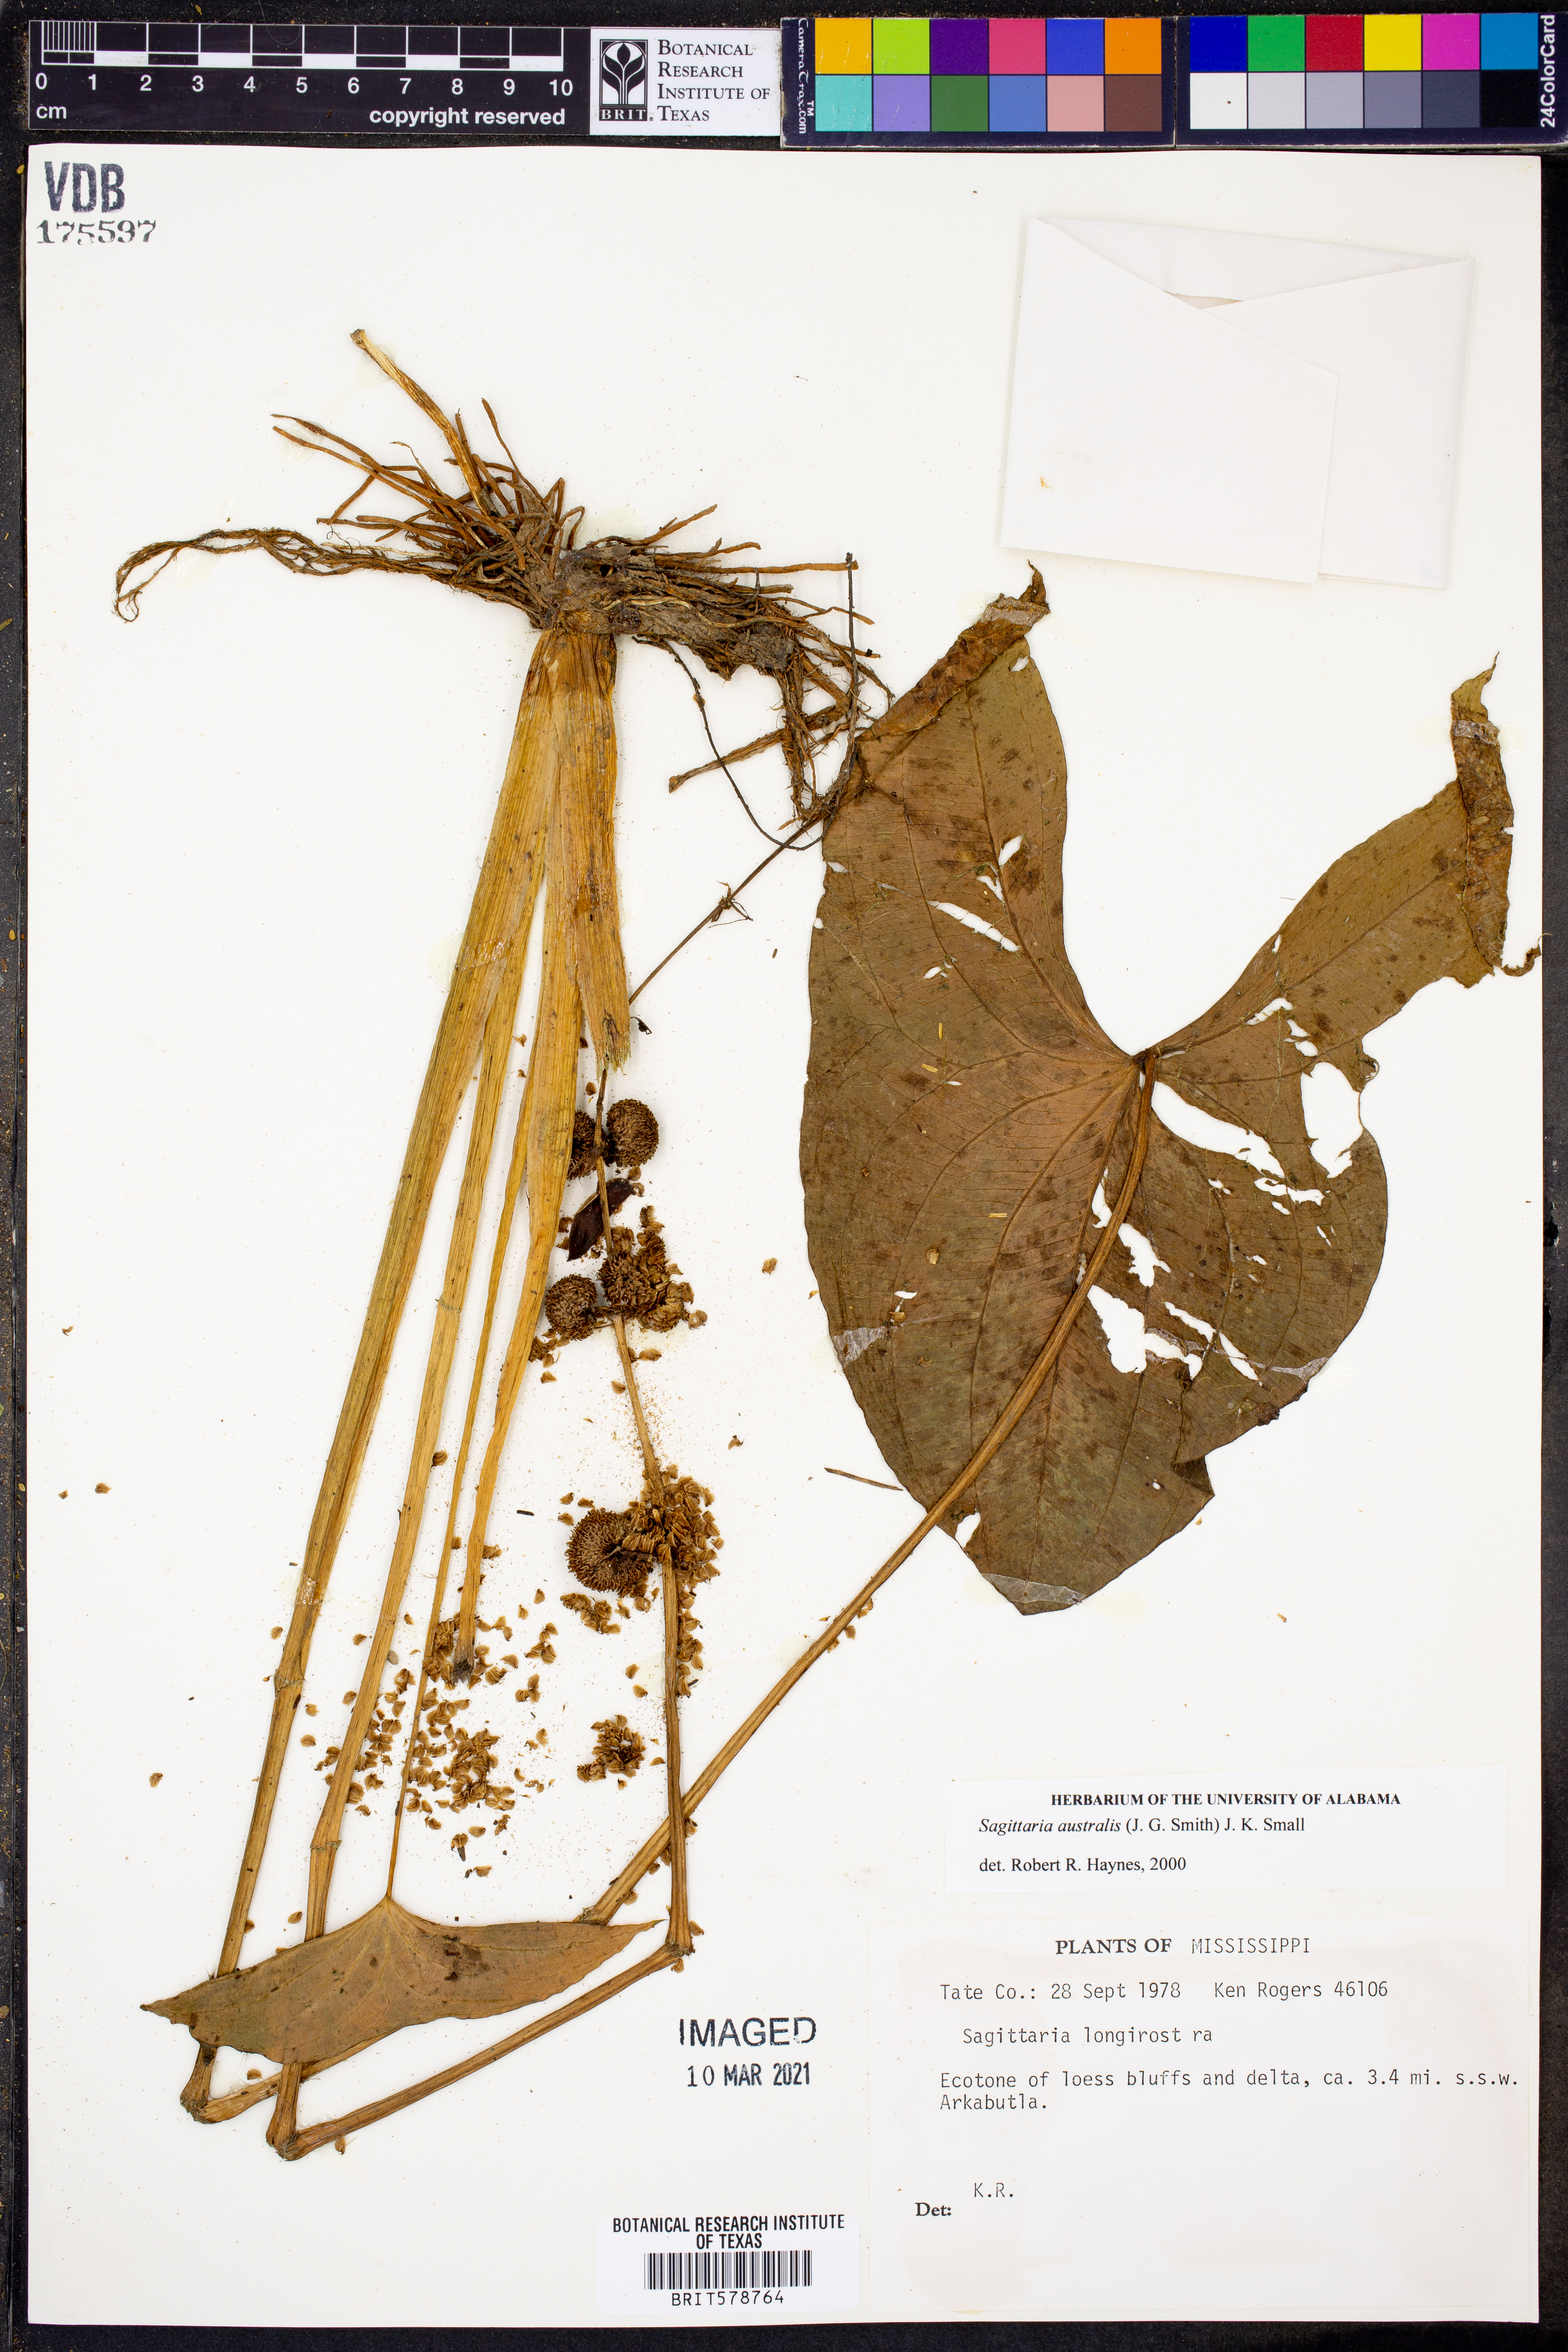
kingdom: Plantae
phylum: Tracheophyta
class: Liliopsida
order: Alismatales
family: Alismataceae
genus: Sagittaria
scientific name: Sagittaria latifolia
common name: Duck-potato
